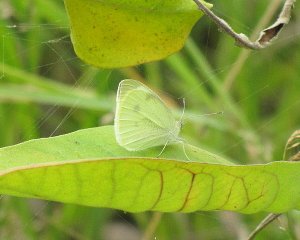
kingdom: Animalia
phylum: Arthropoda
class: Insecta
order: Lepidoptera
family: Pieridae
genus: Pieris
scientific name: Pieris rapae
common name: Cabbage White
